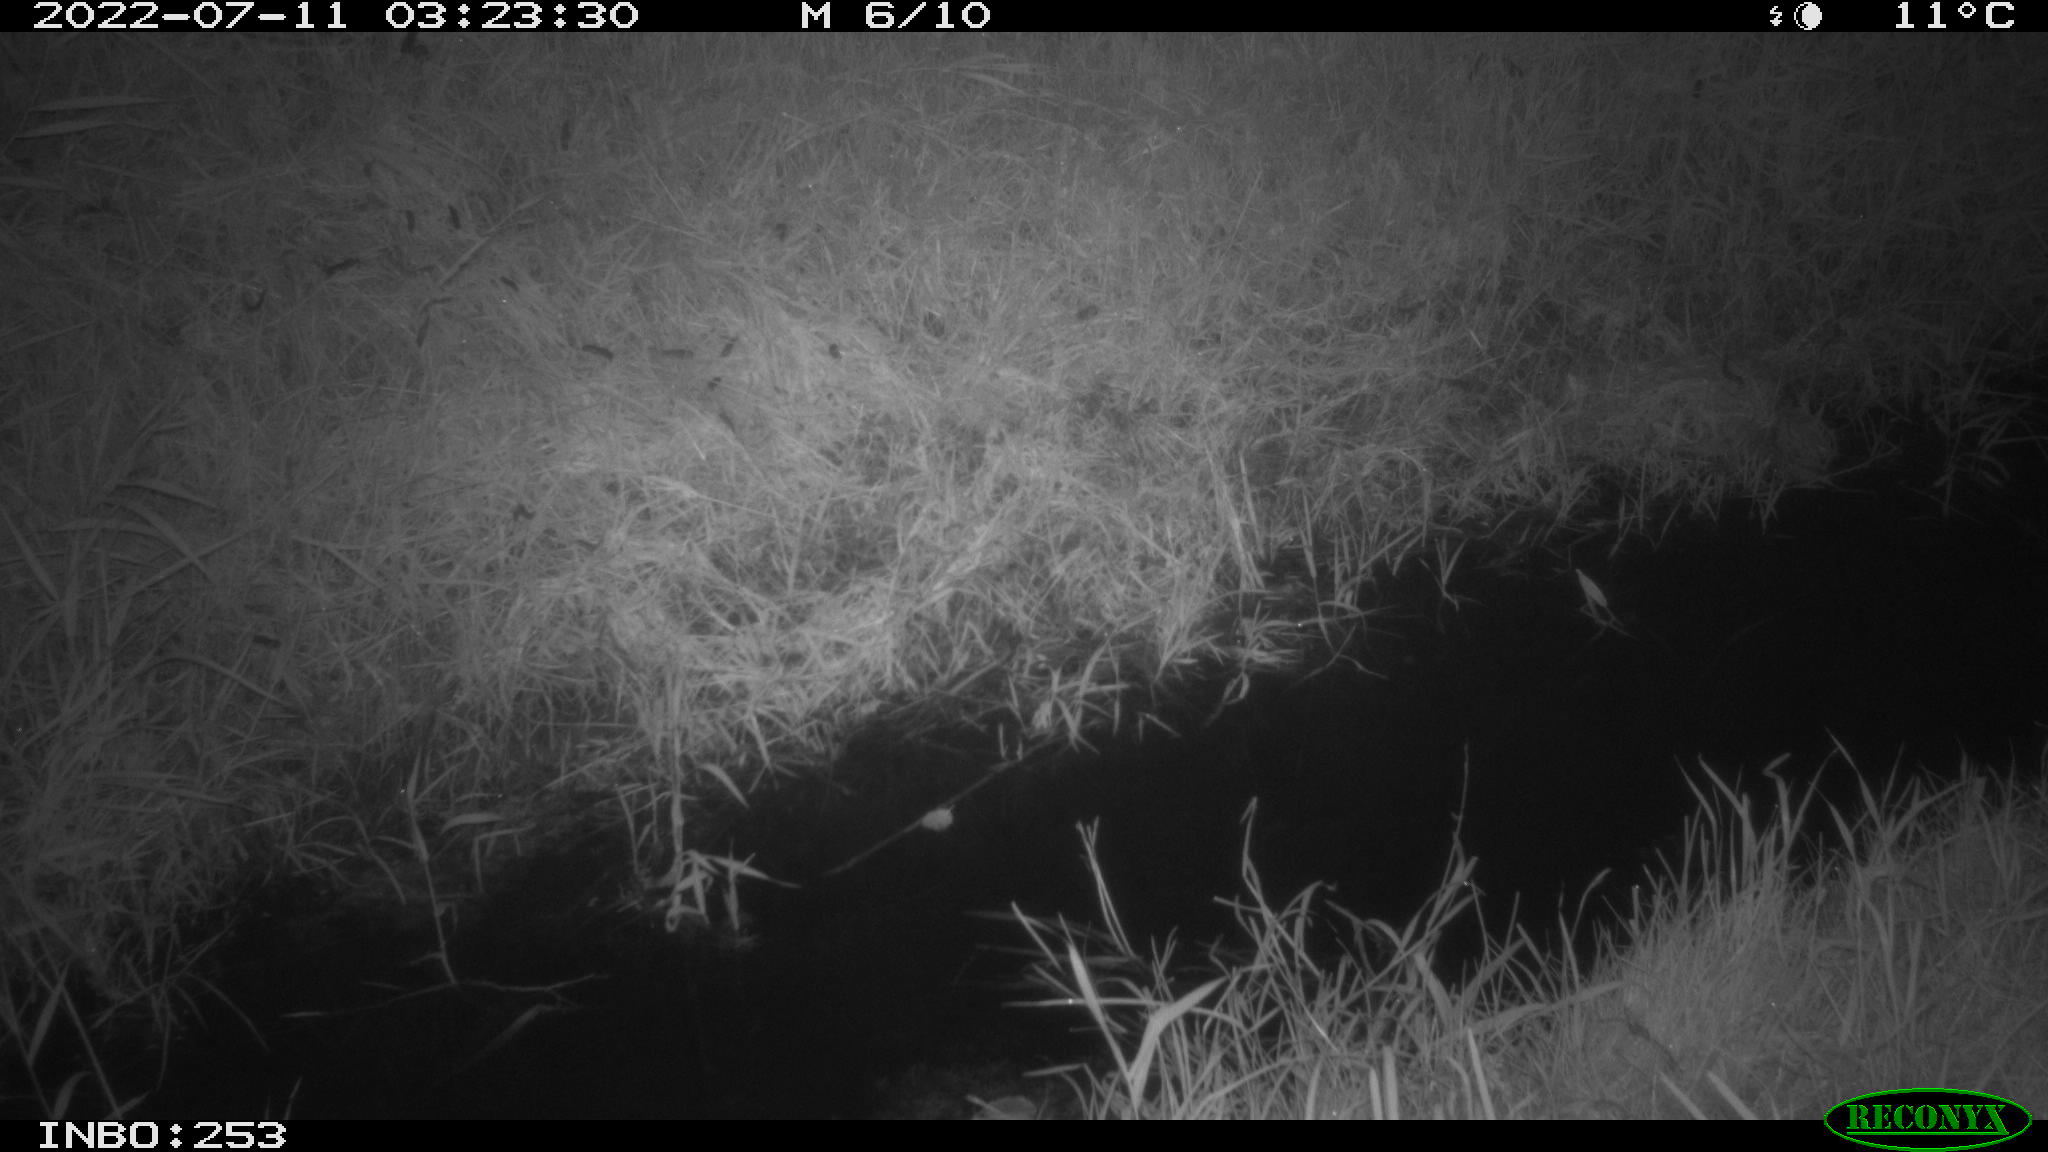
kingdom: Animalia
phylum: Chordata
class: Mammalia
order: Carnivora
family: Mustelidae
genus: Martes
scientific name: Martes foina
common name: Beech marten
